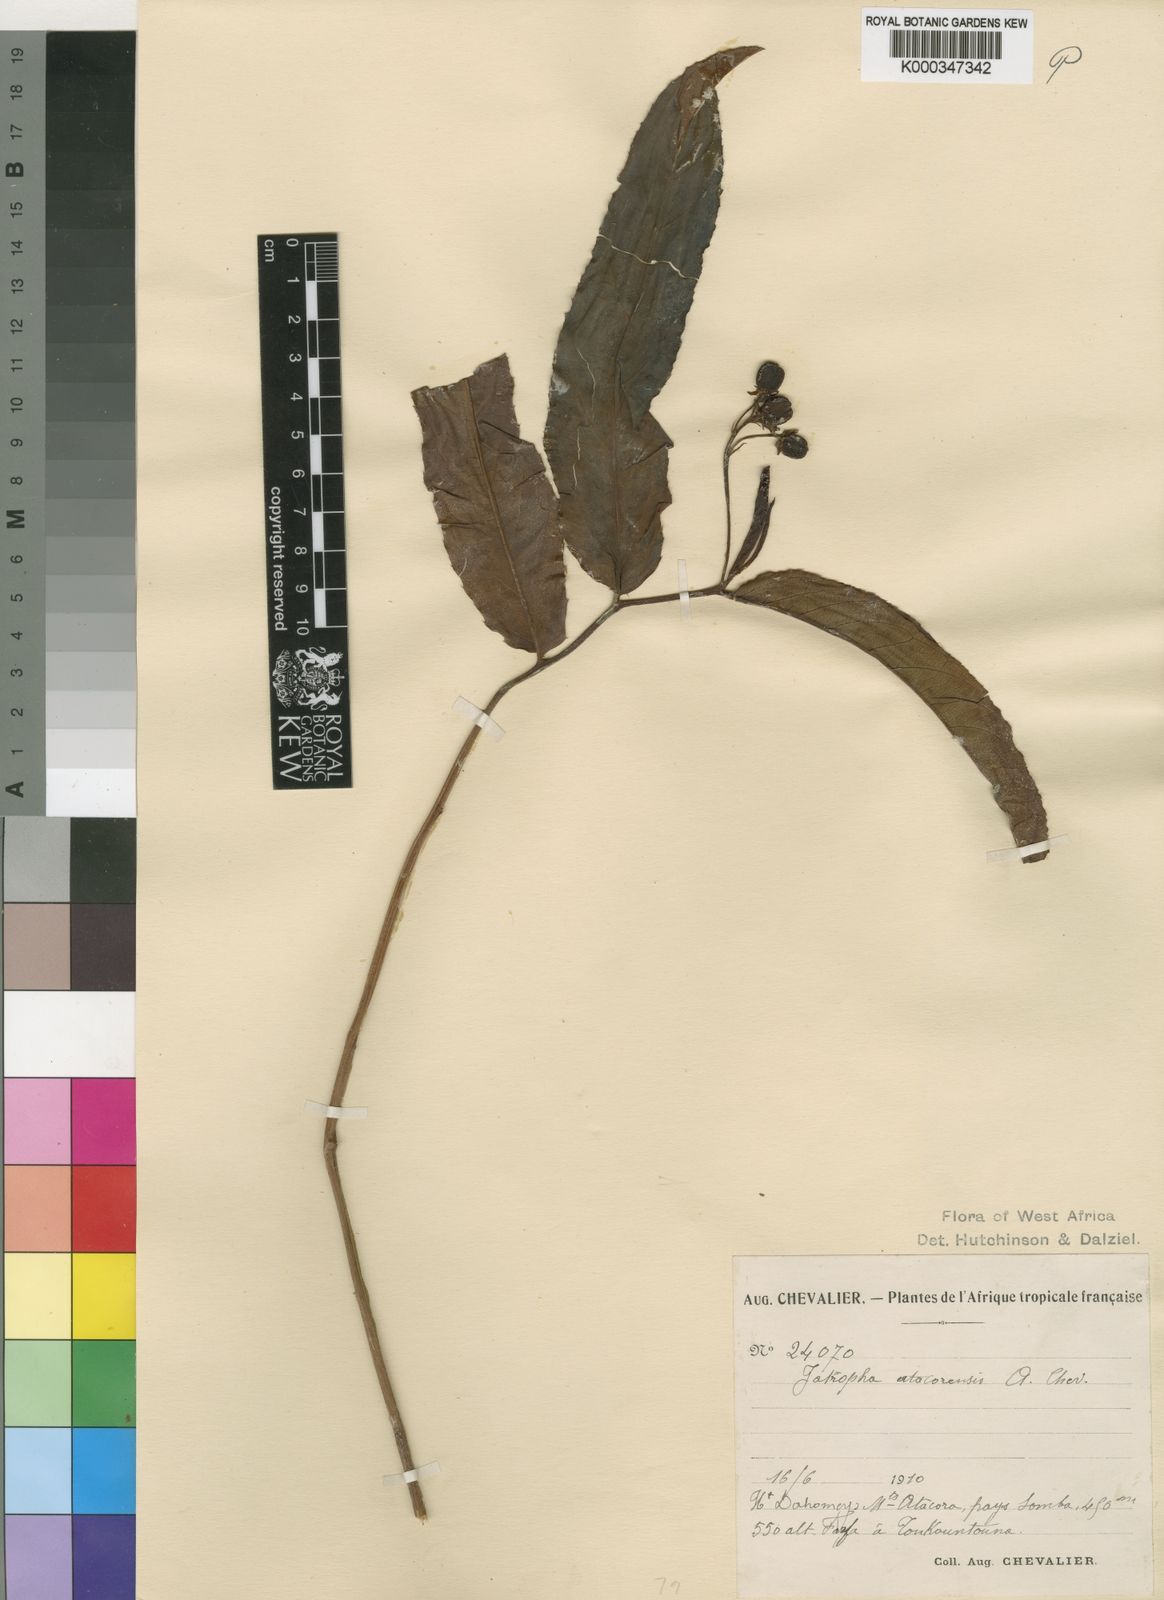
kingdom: Plantae
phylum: Tracheophyta
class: Magnoliopsida
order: Malpighiales
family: Euphorbiaceae
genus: Jatropha
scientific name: Jatropha atacorensis
